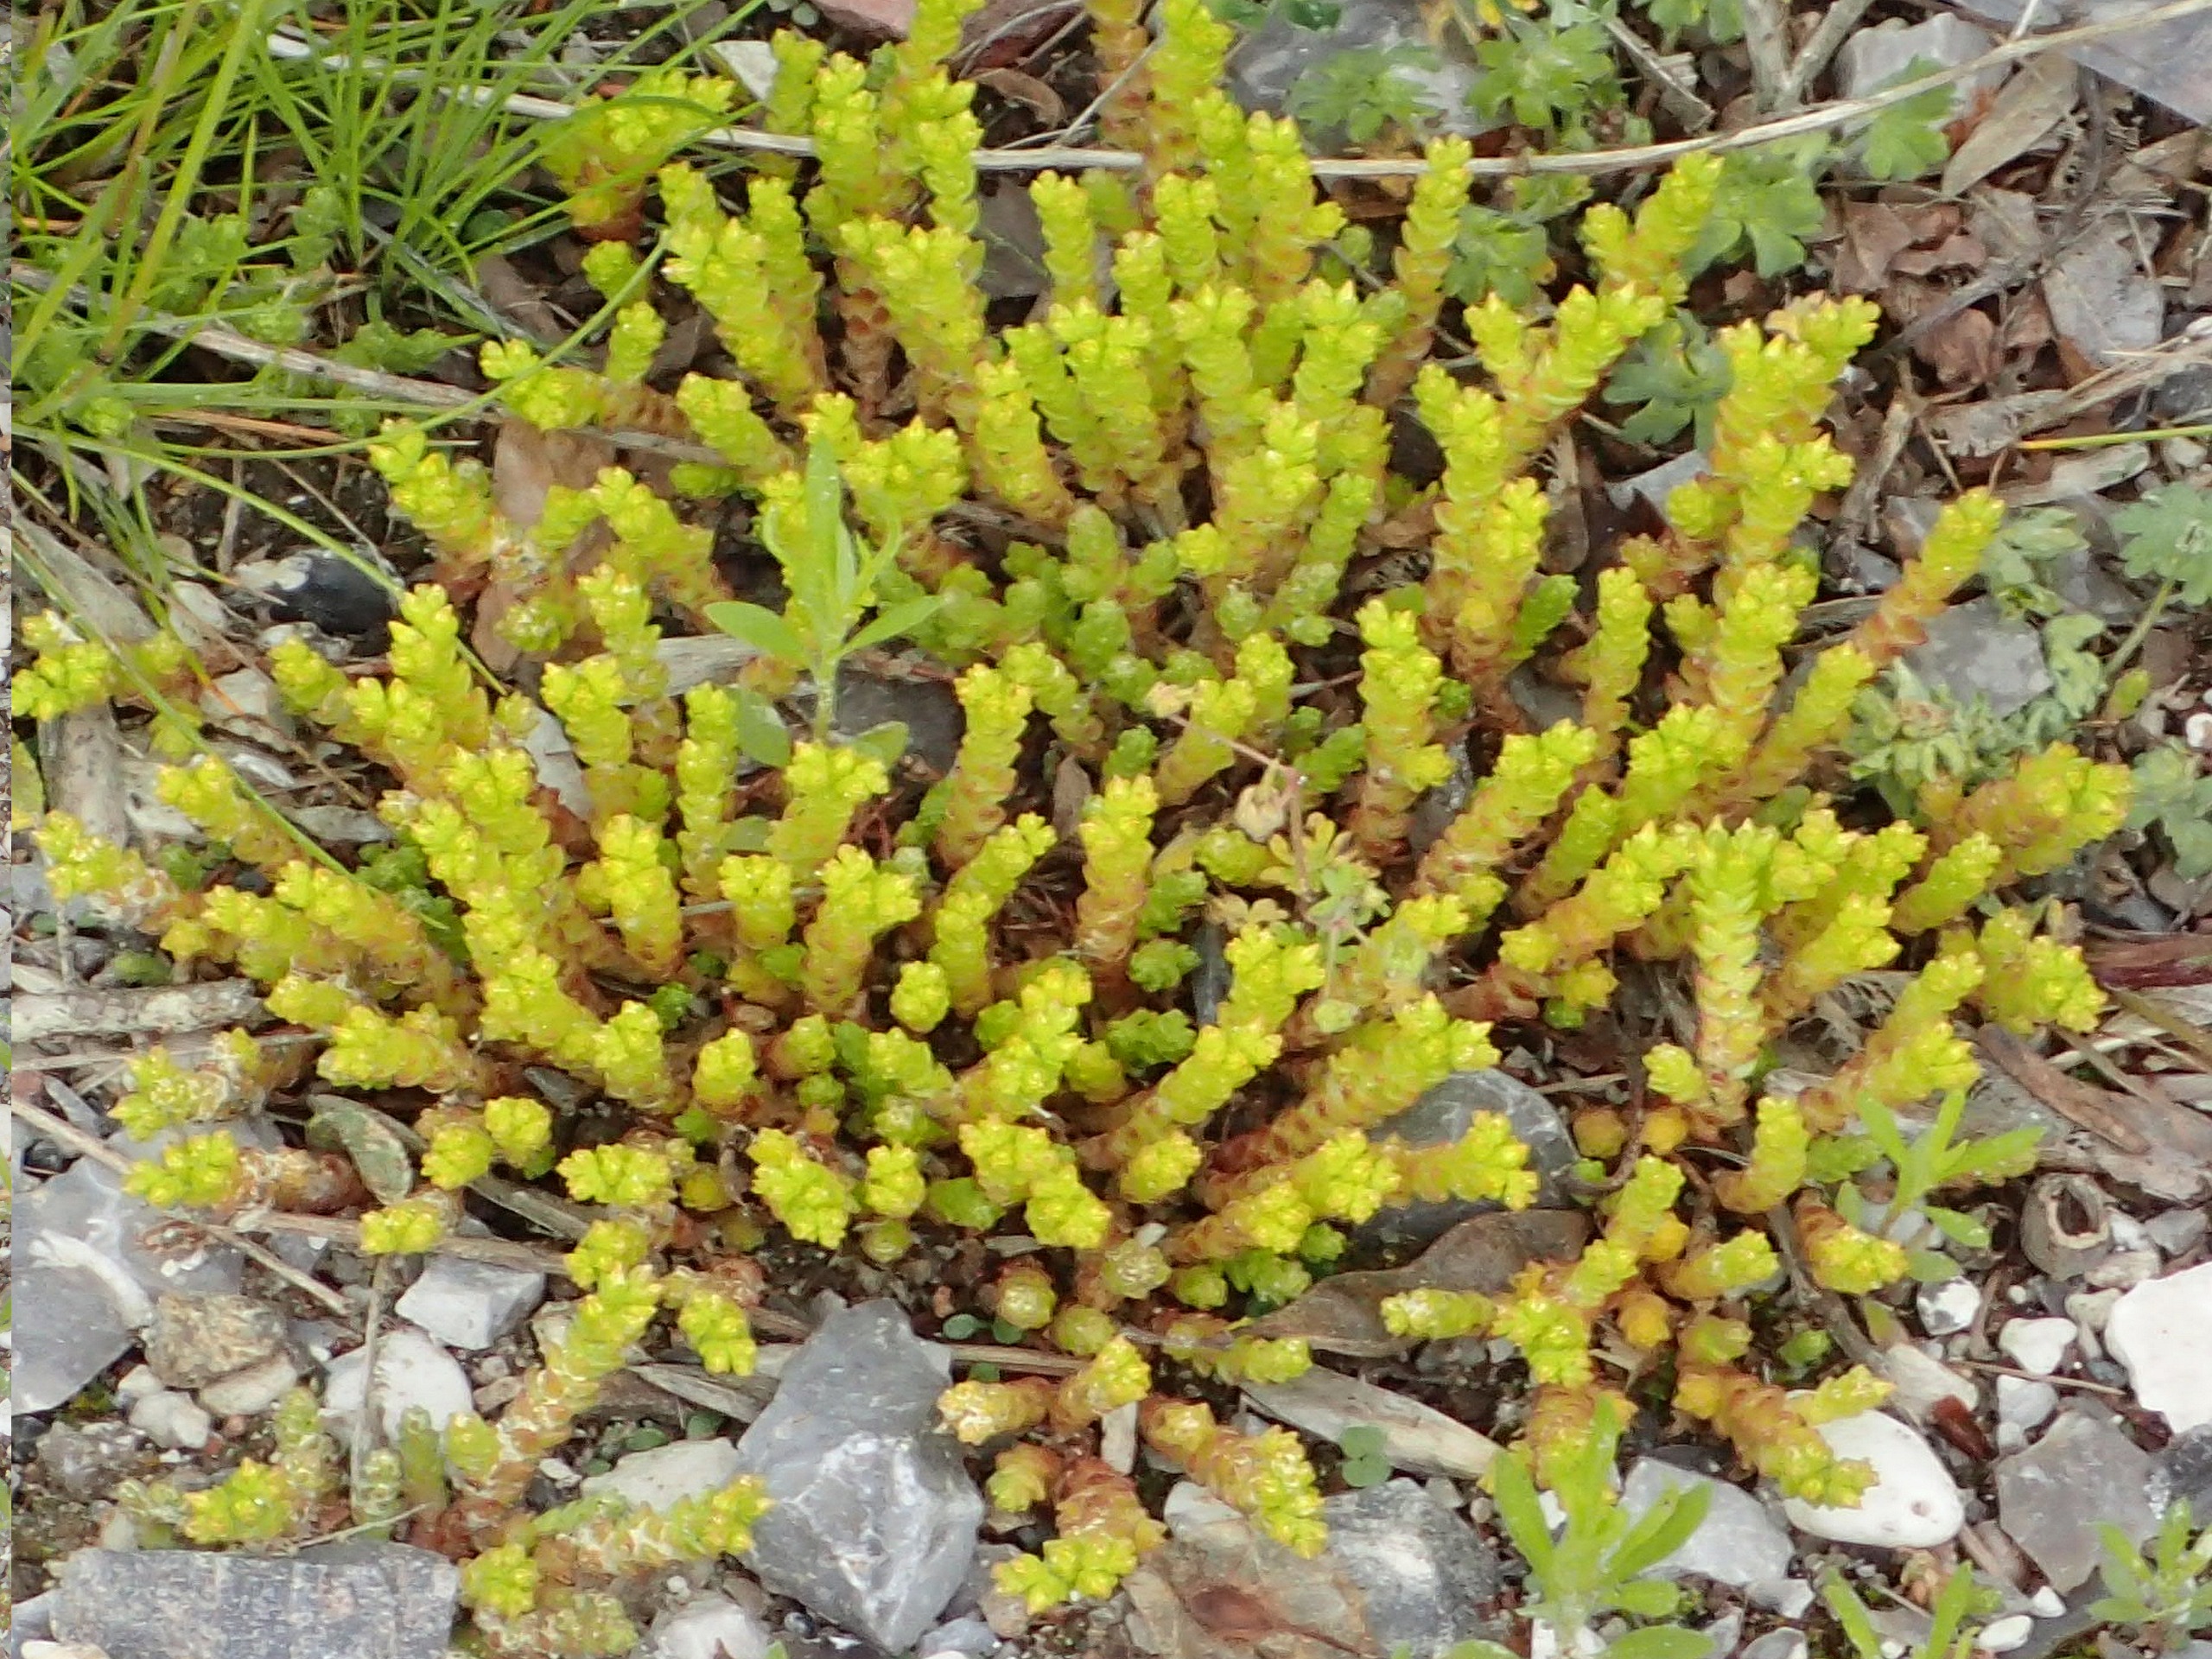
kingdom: Plantae
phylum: Tracheophyta
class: Magnoliopsida
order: Saxifragales
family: Crassulaceae
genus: Sedum
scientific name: Sedum acre
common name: Bidende stenurt
